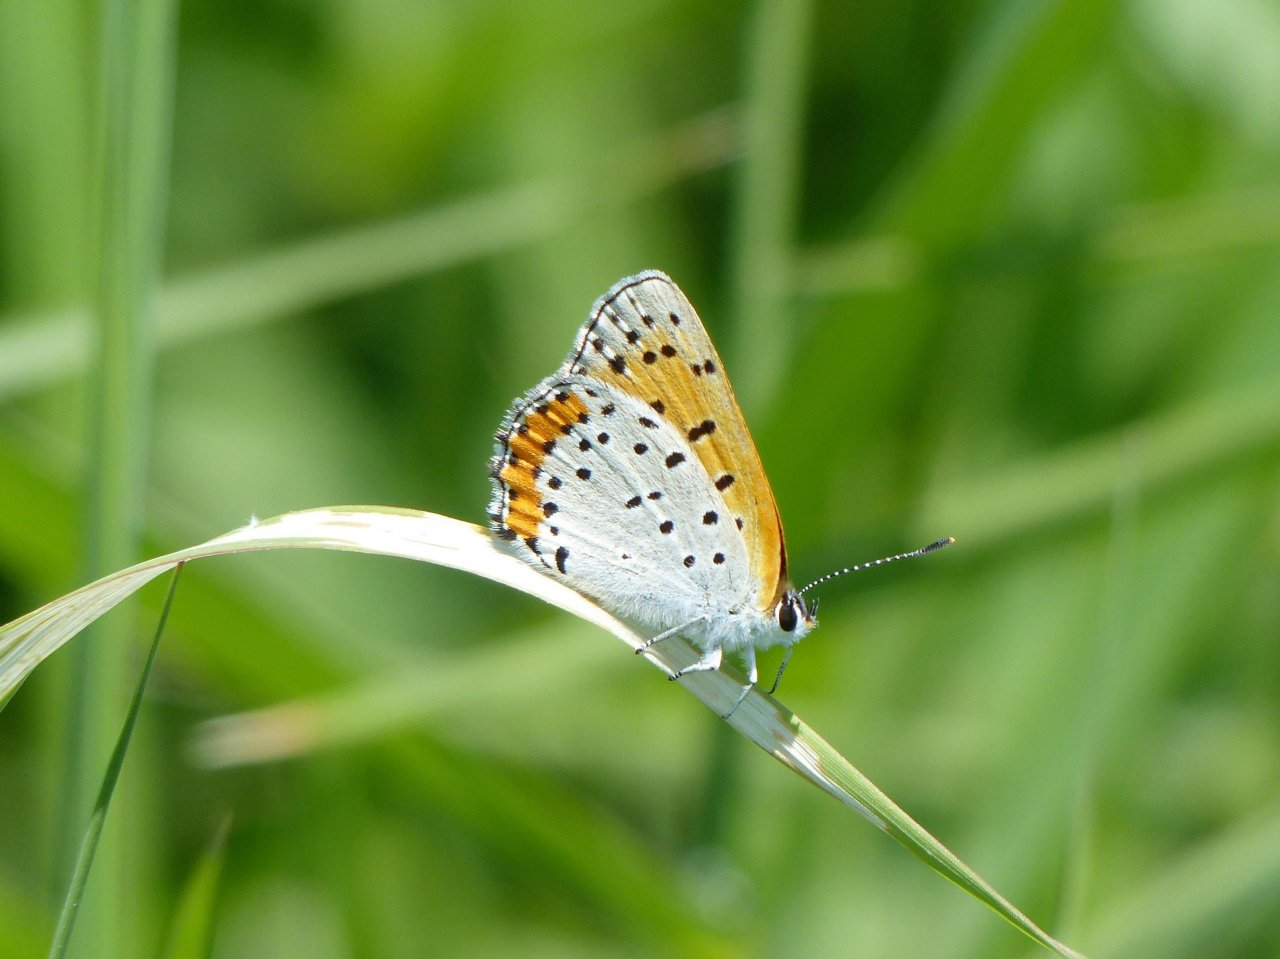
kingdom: Animalia
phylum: Arthropoda
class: Insecta
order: Lepidoptera
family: Sesiidae
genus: Sesia
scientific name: Sesia Lycaena hyllus
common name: Bronze Copper
